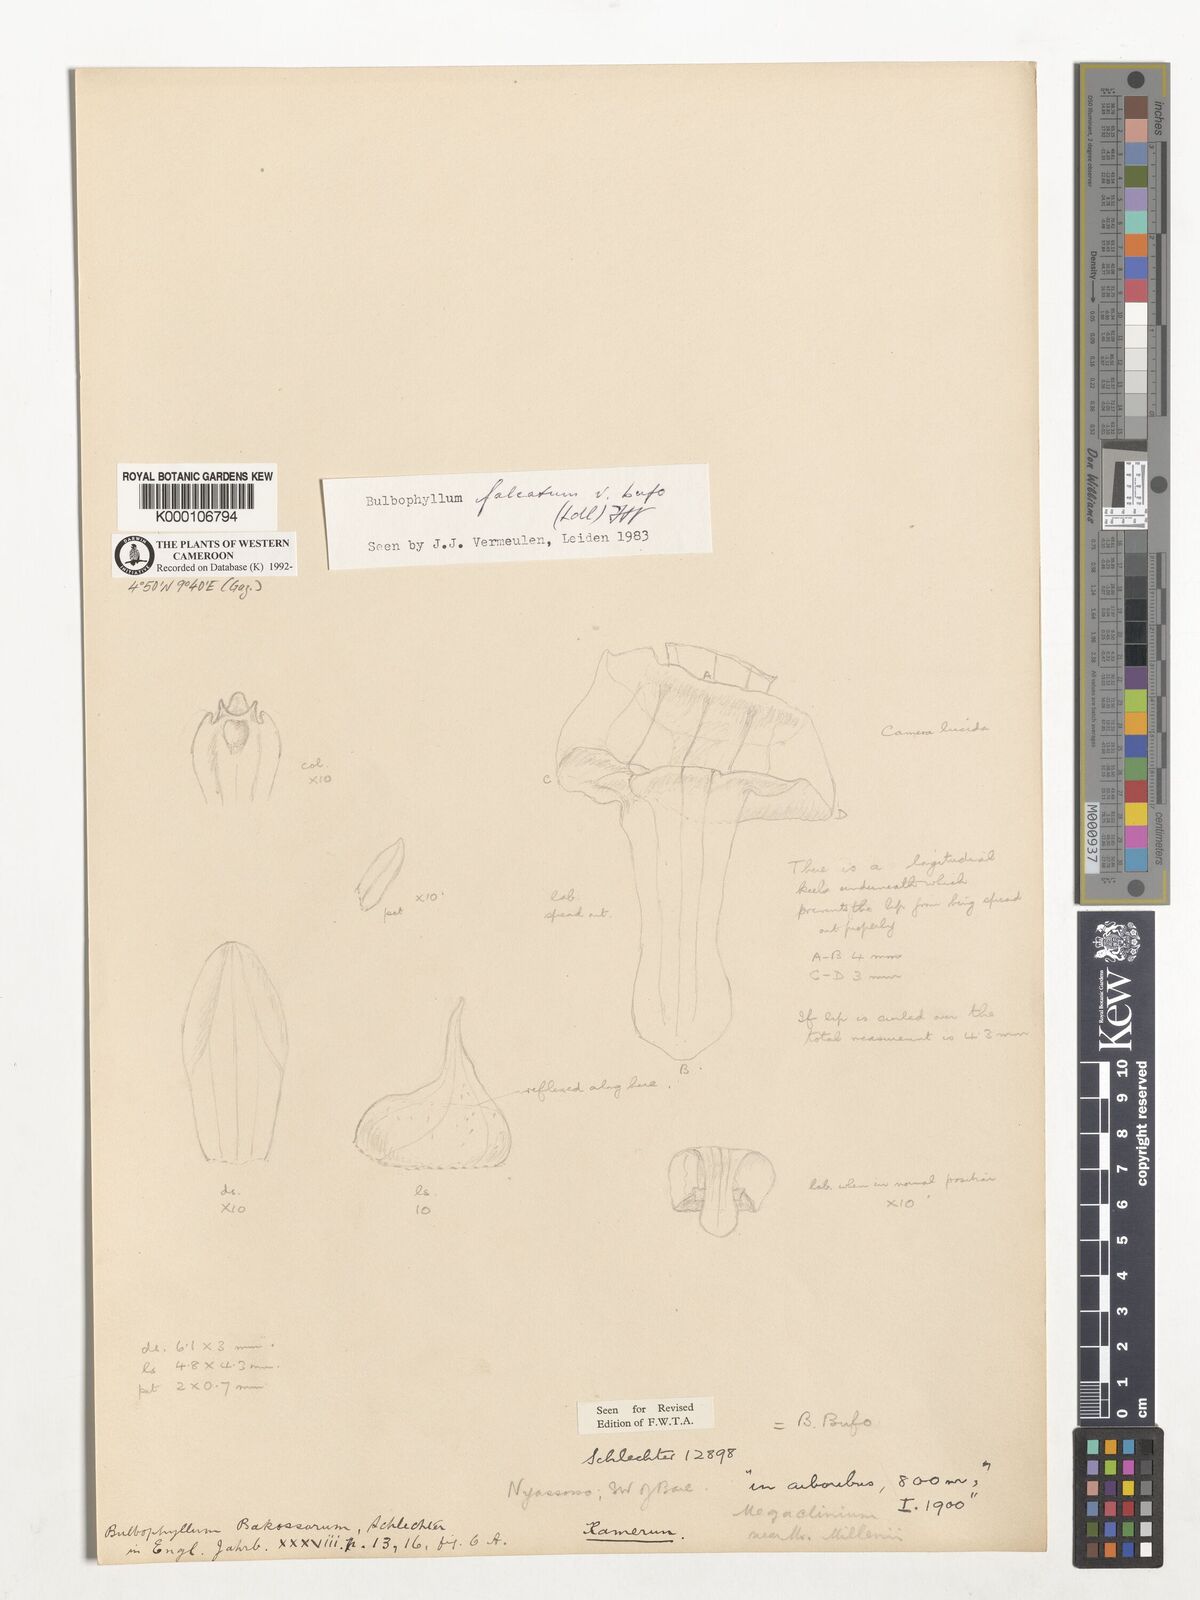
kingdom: Plantae
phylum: Tracheophyta
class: Liliopsida
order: Asparagales
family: Orchidaceae
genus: Bulbophyllum
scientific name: Bulbophyllum falcatum
